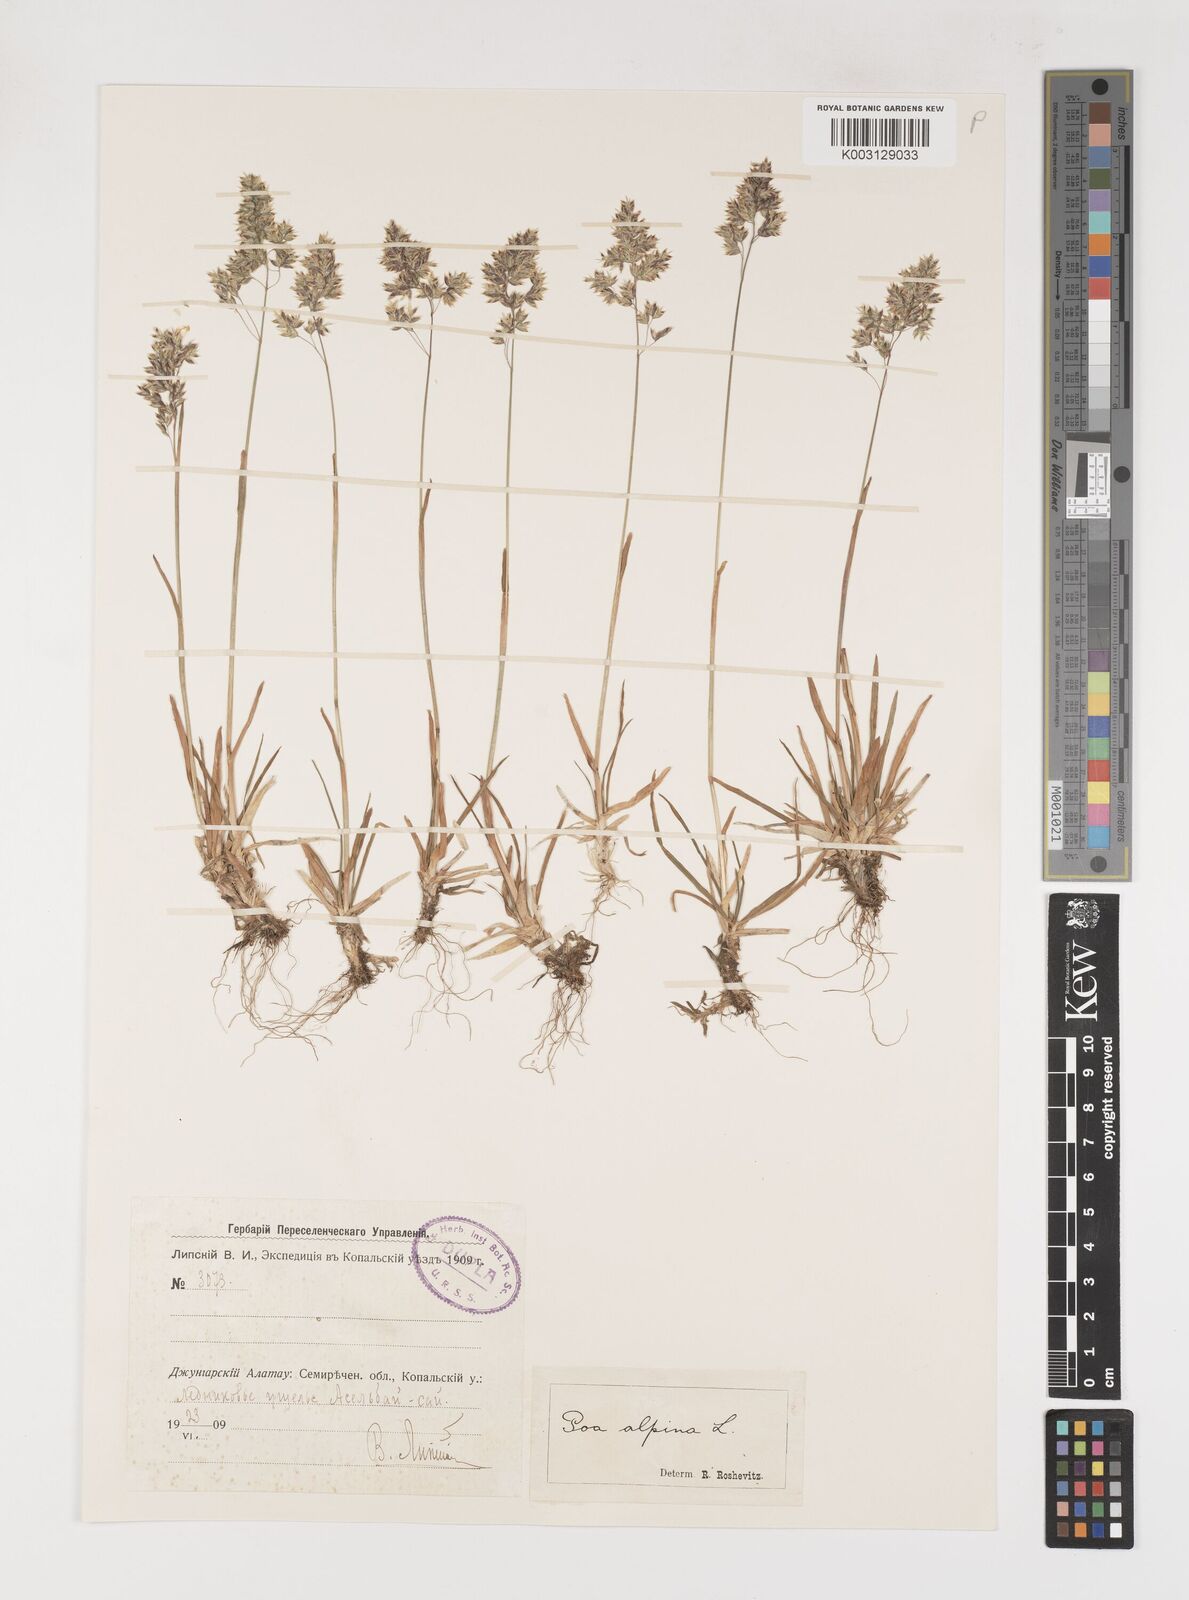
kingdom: Plantae
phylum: Tracheophyta
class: Liliopsida
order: Poales
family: Poaceae
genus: Poa
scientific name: Poa alpina
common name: Alpine bluegrass
